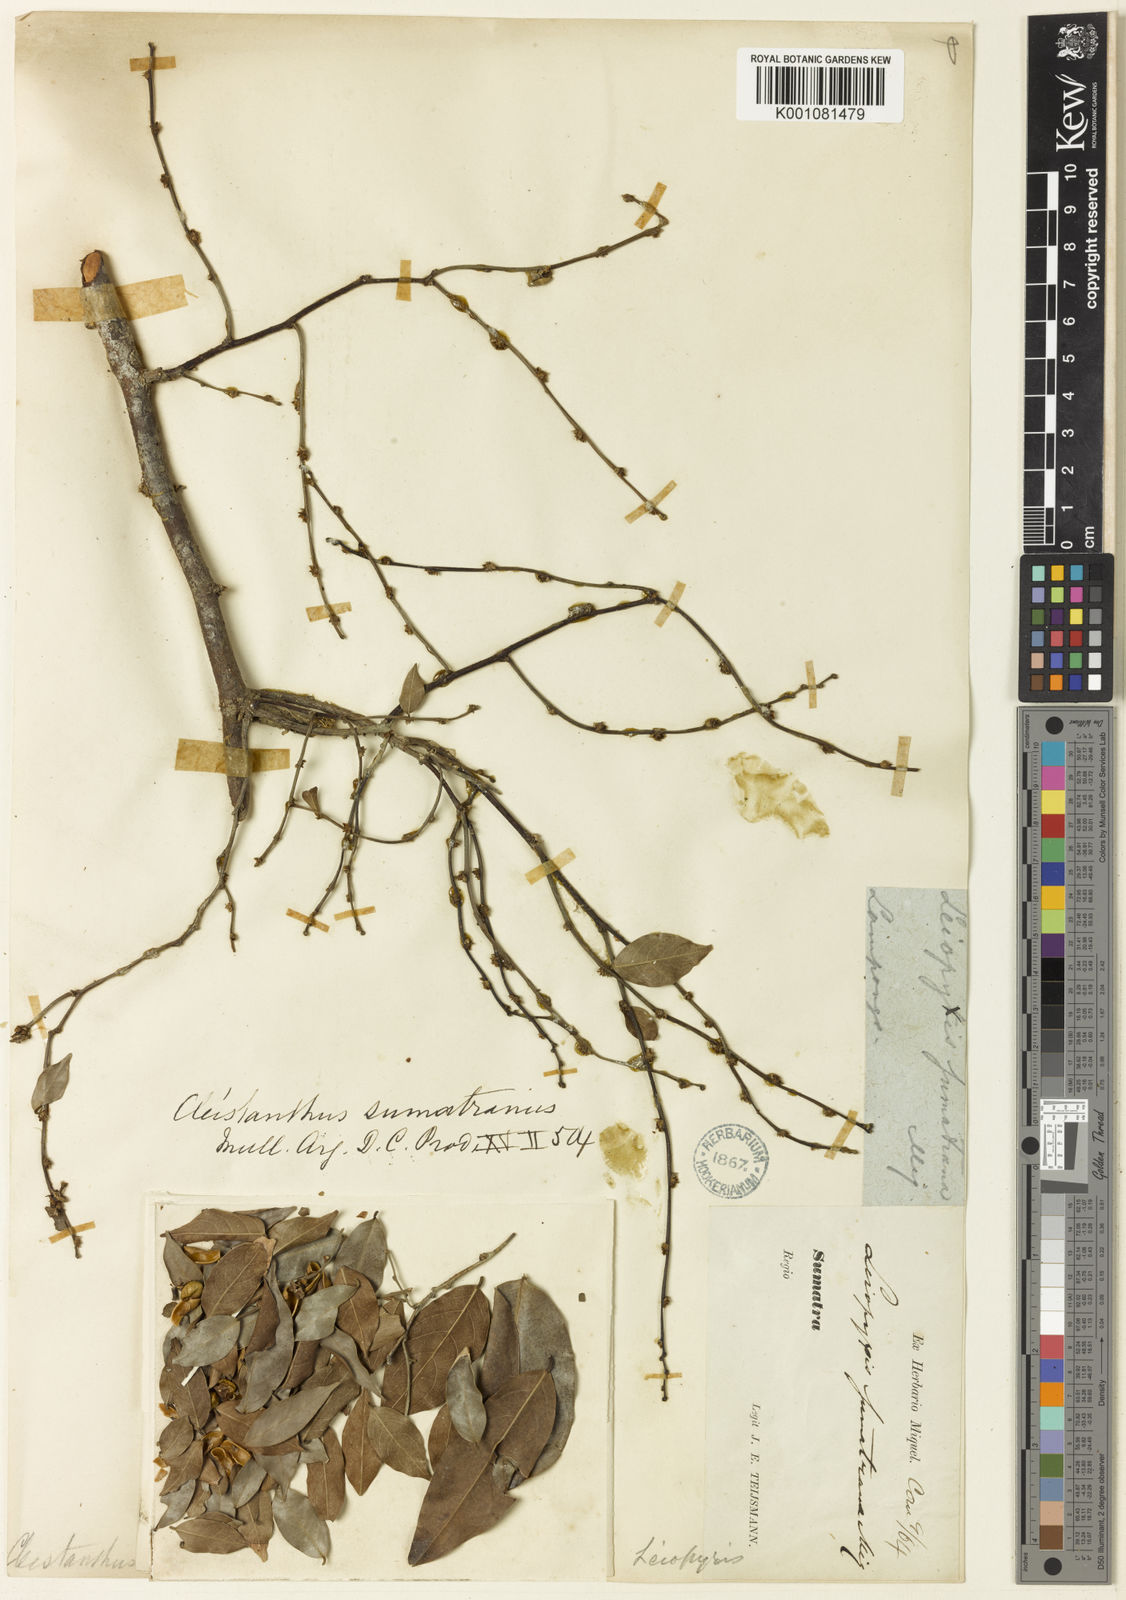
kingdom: Plantae
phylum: Tracheophyta
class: Magnoliopsida
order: Malpighiales
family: Phyllanthaceae
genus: Cleistanthus
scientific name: Cleistanthus
